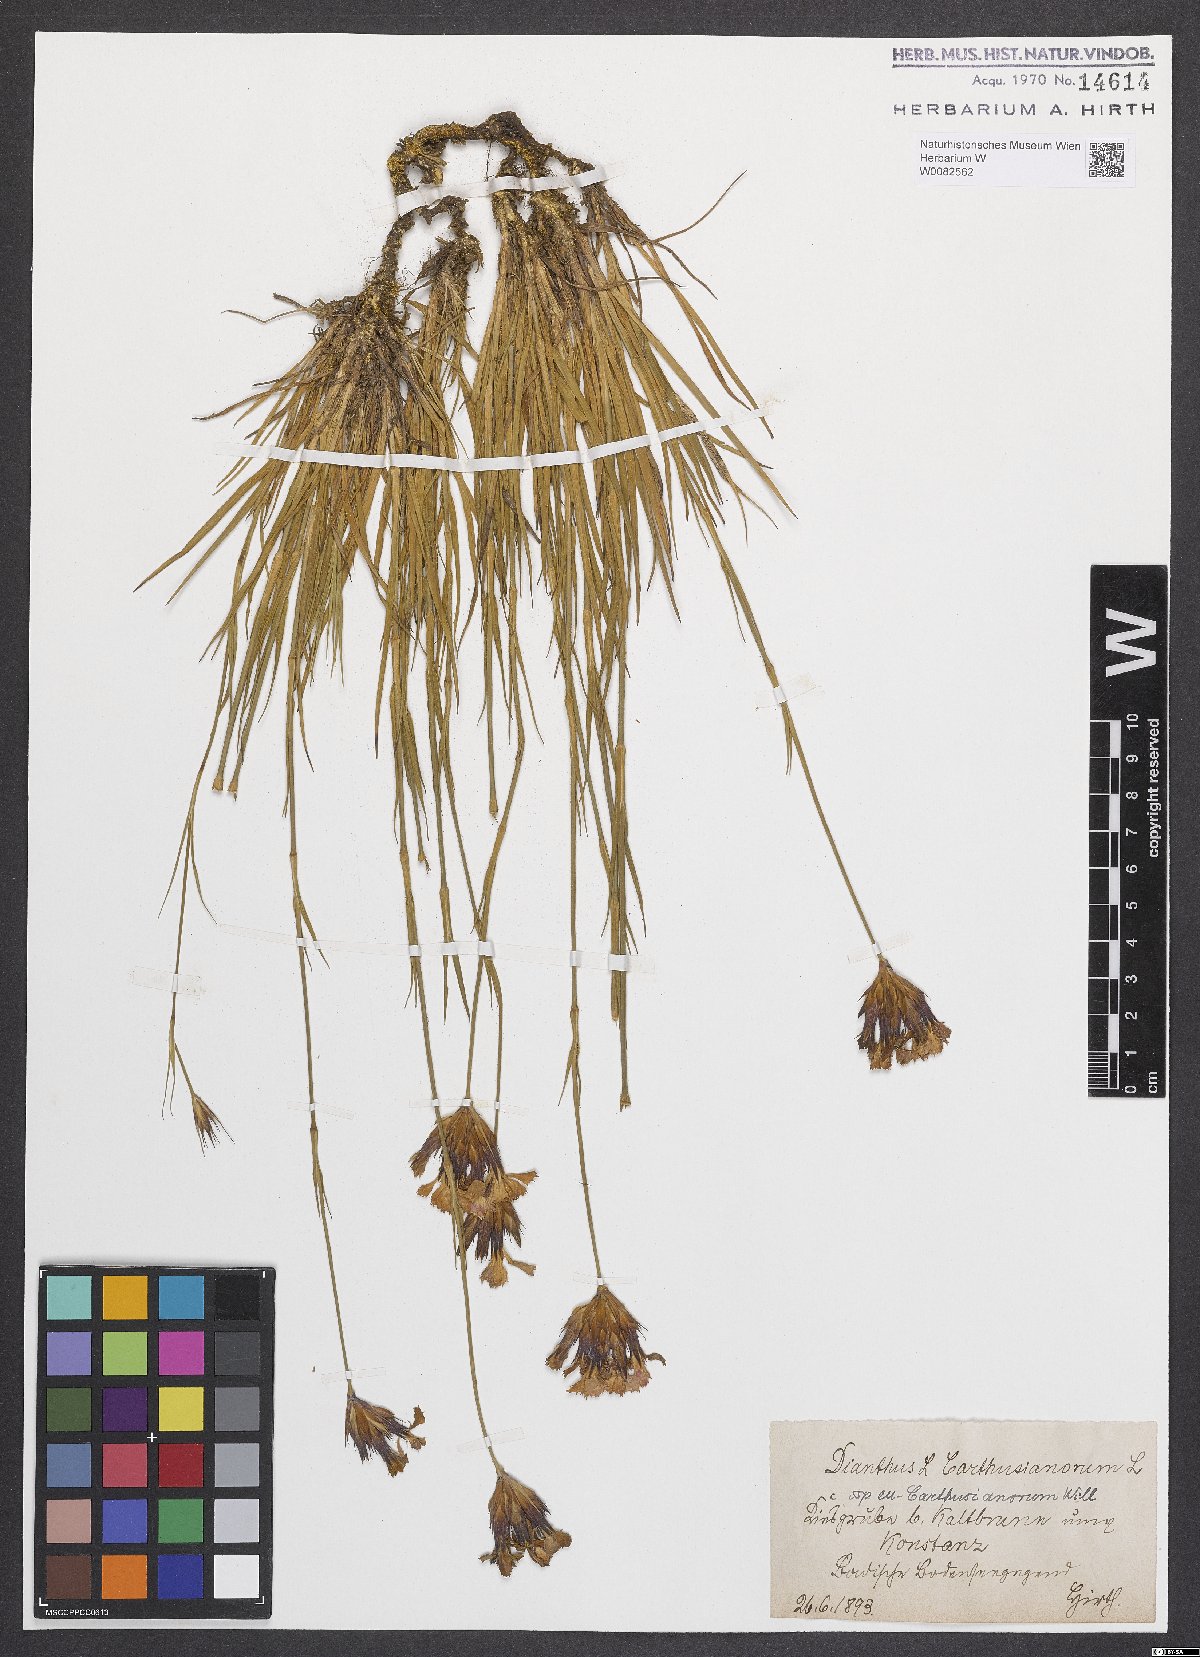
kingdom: Plantae
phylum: Tracheophyta
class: Magnoliopsida
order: Caryophyllales
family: Caryophyllaceae
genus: Dianthus
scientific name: Dianthus carthusianorum
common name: Carthusian pink
